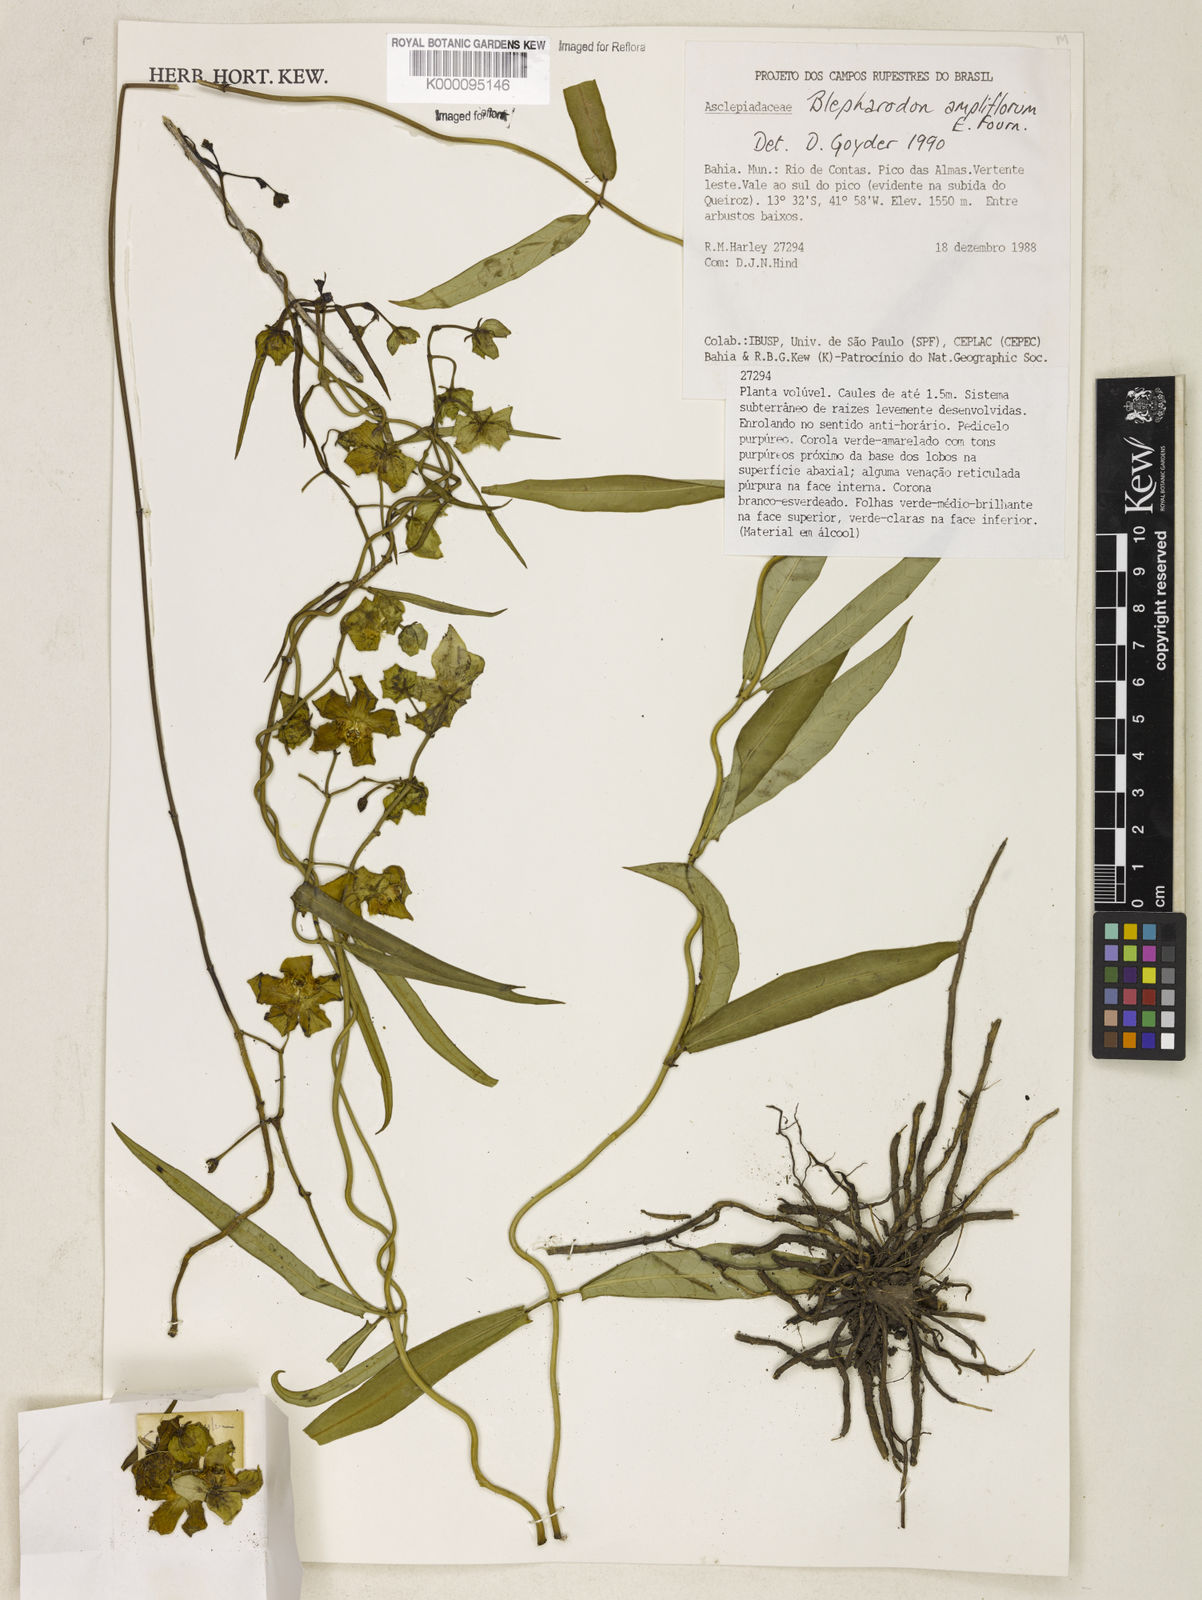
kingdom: Plantae
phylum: Tracheophyta
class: Magnoliopsida
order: Gentianales
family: Apocynaceae
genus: Blepharodon
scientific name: Blepharodon ampliflorum
